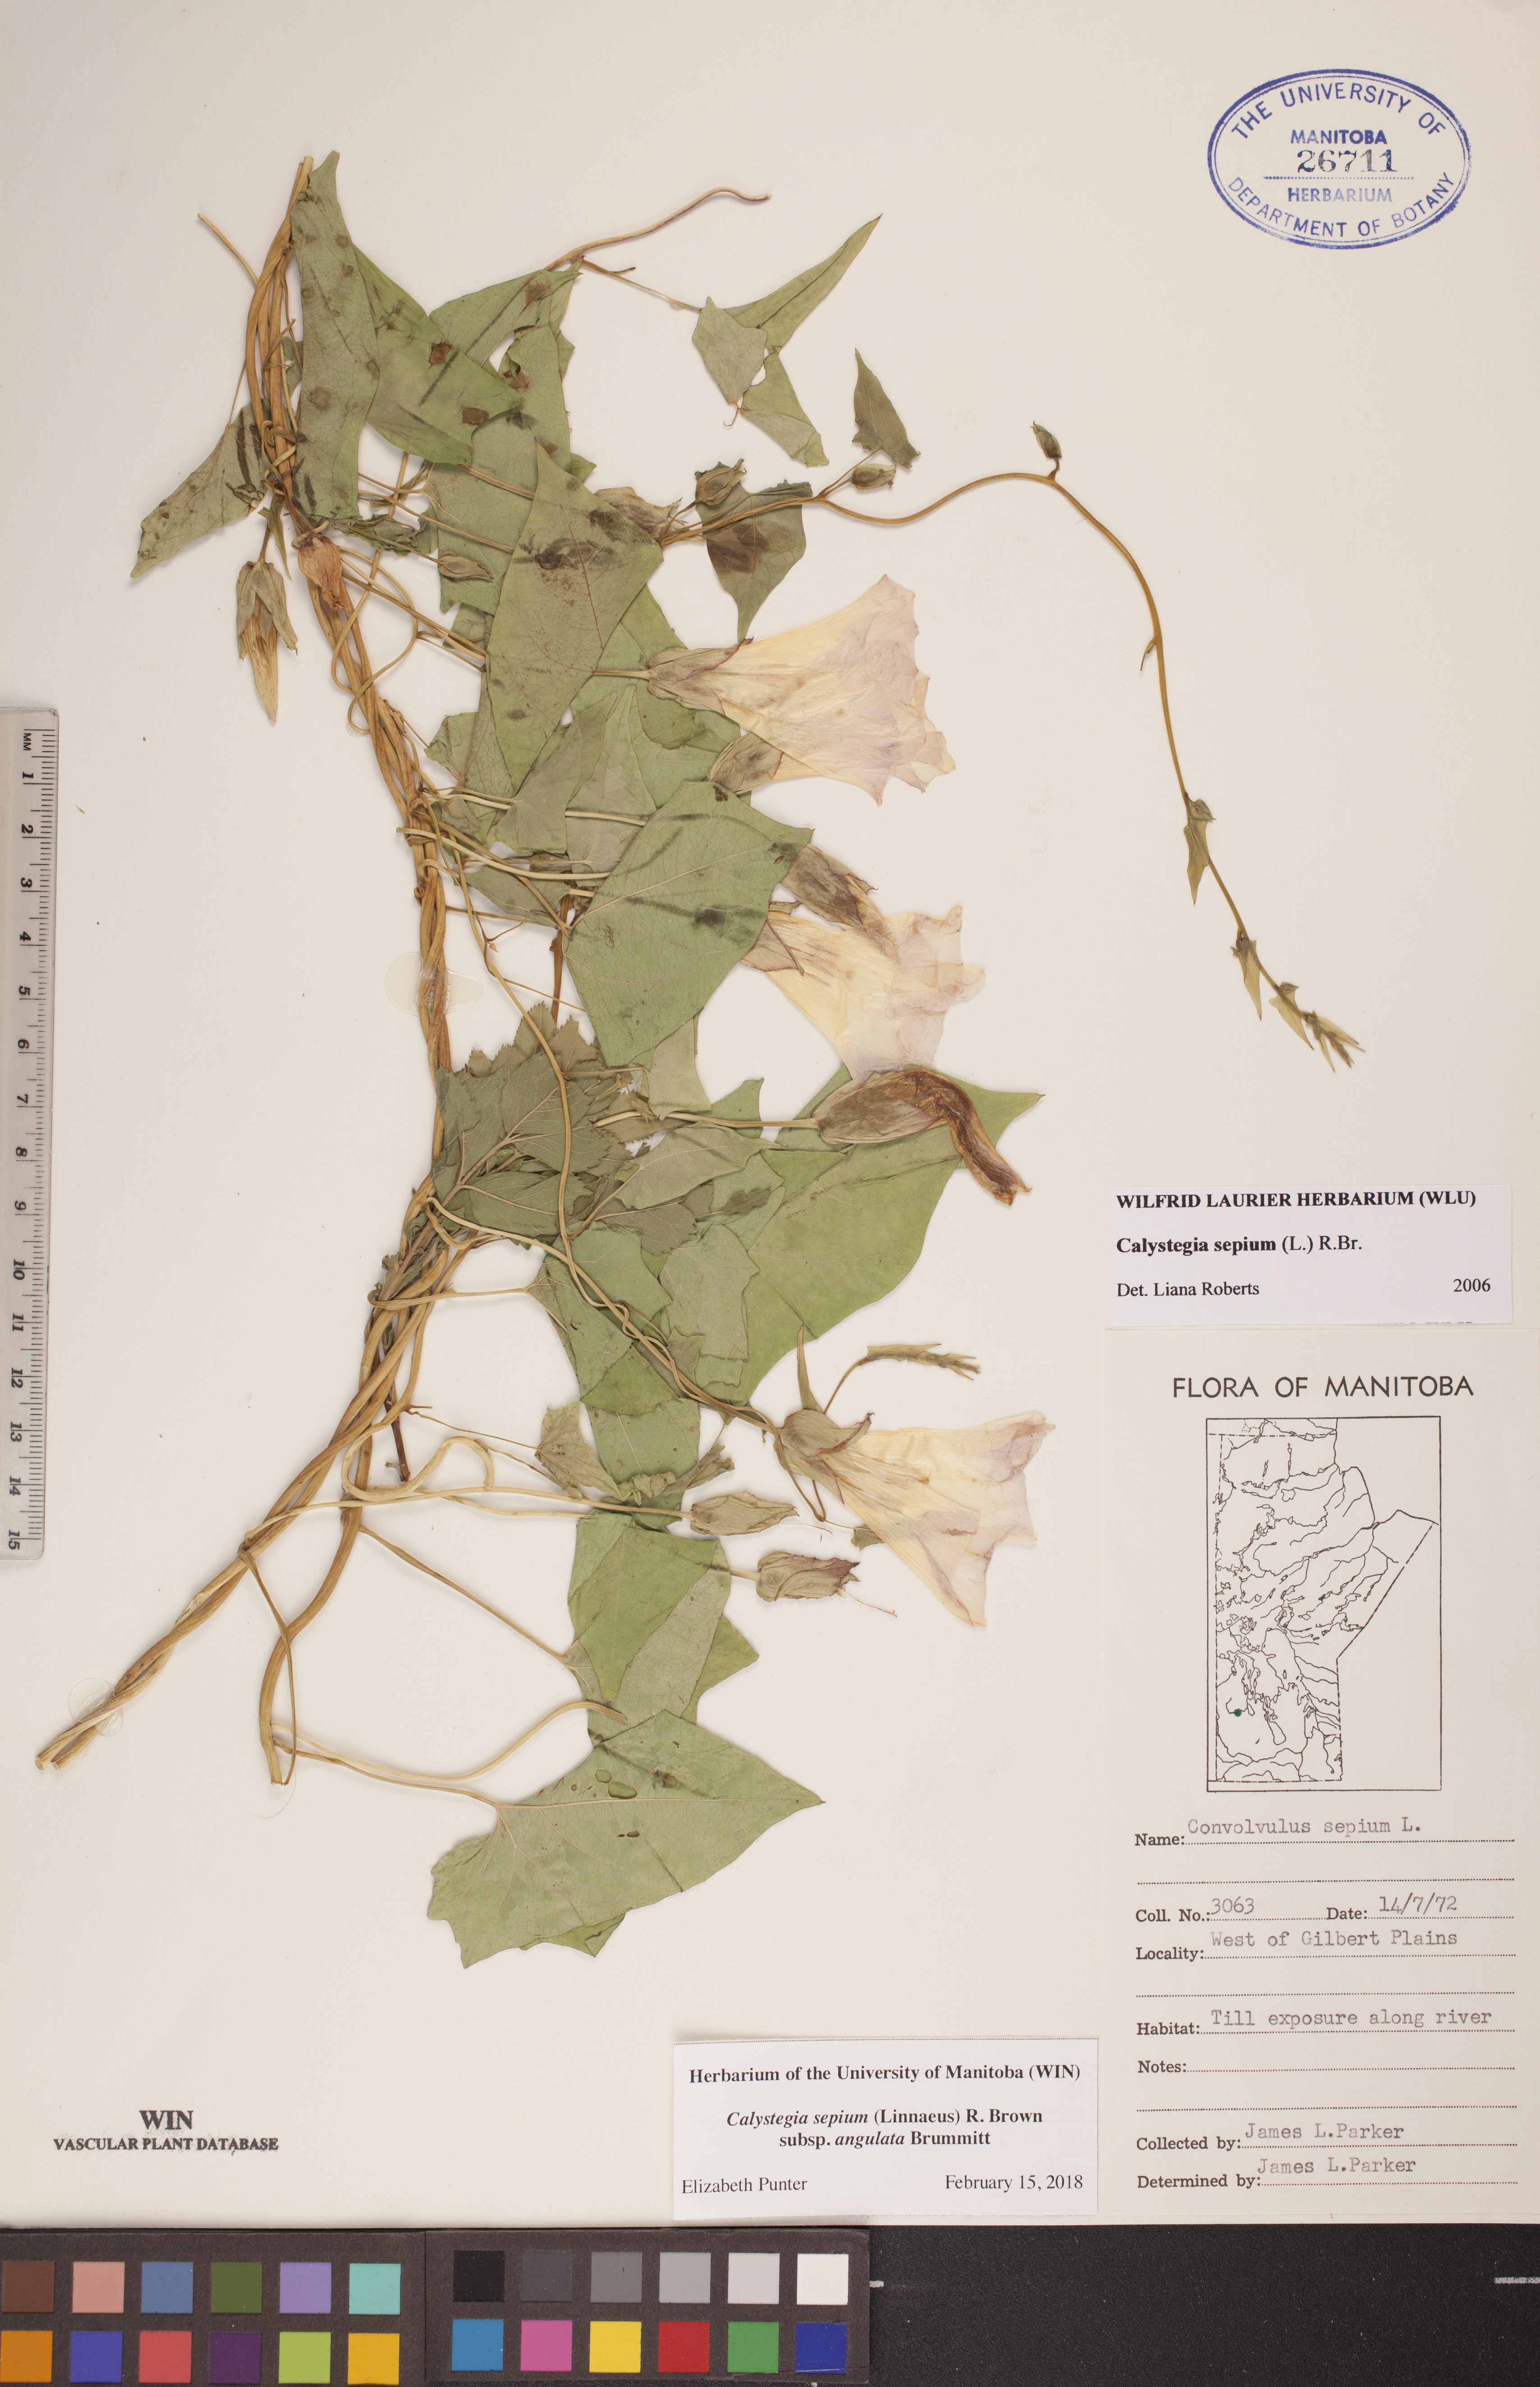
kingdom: Plantae
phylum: Tracheophyta
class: Magnoliopsida
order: Solanales
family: Convolvulaceae
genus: Calystegia
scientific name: Calystegia sepium
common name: Hedge bindweed
